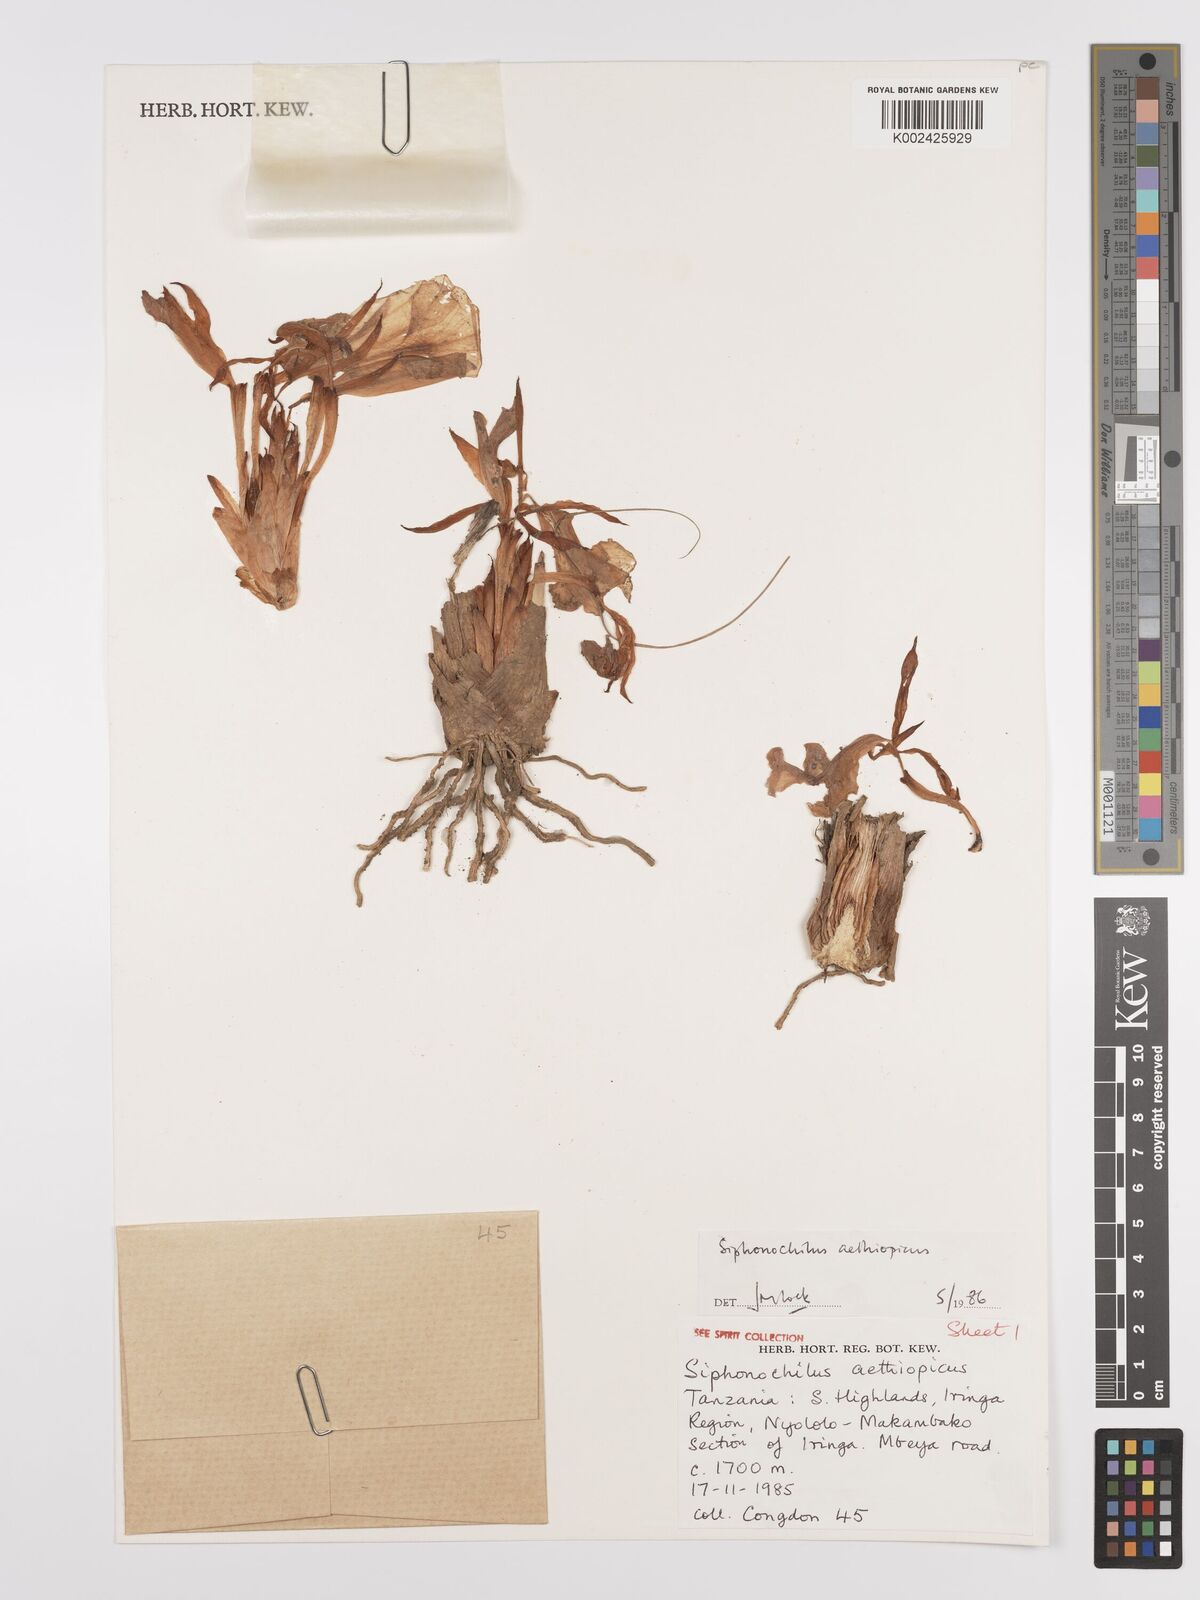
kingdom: Plantae
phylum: Tracheophyta
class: Liliopsida
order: Zingiberales
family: Zingiberaceae
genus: Siphonochilus
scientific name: Siphonochilus aethiopicus
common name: African-ginger
